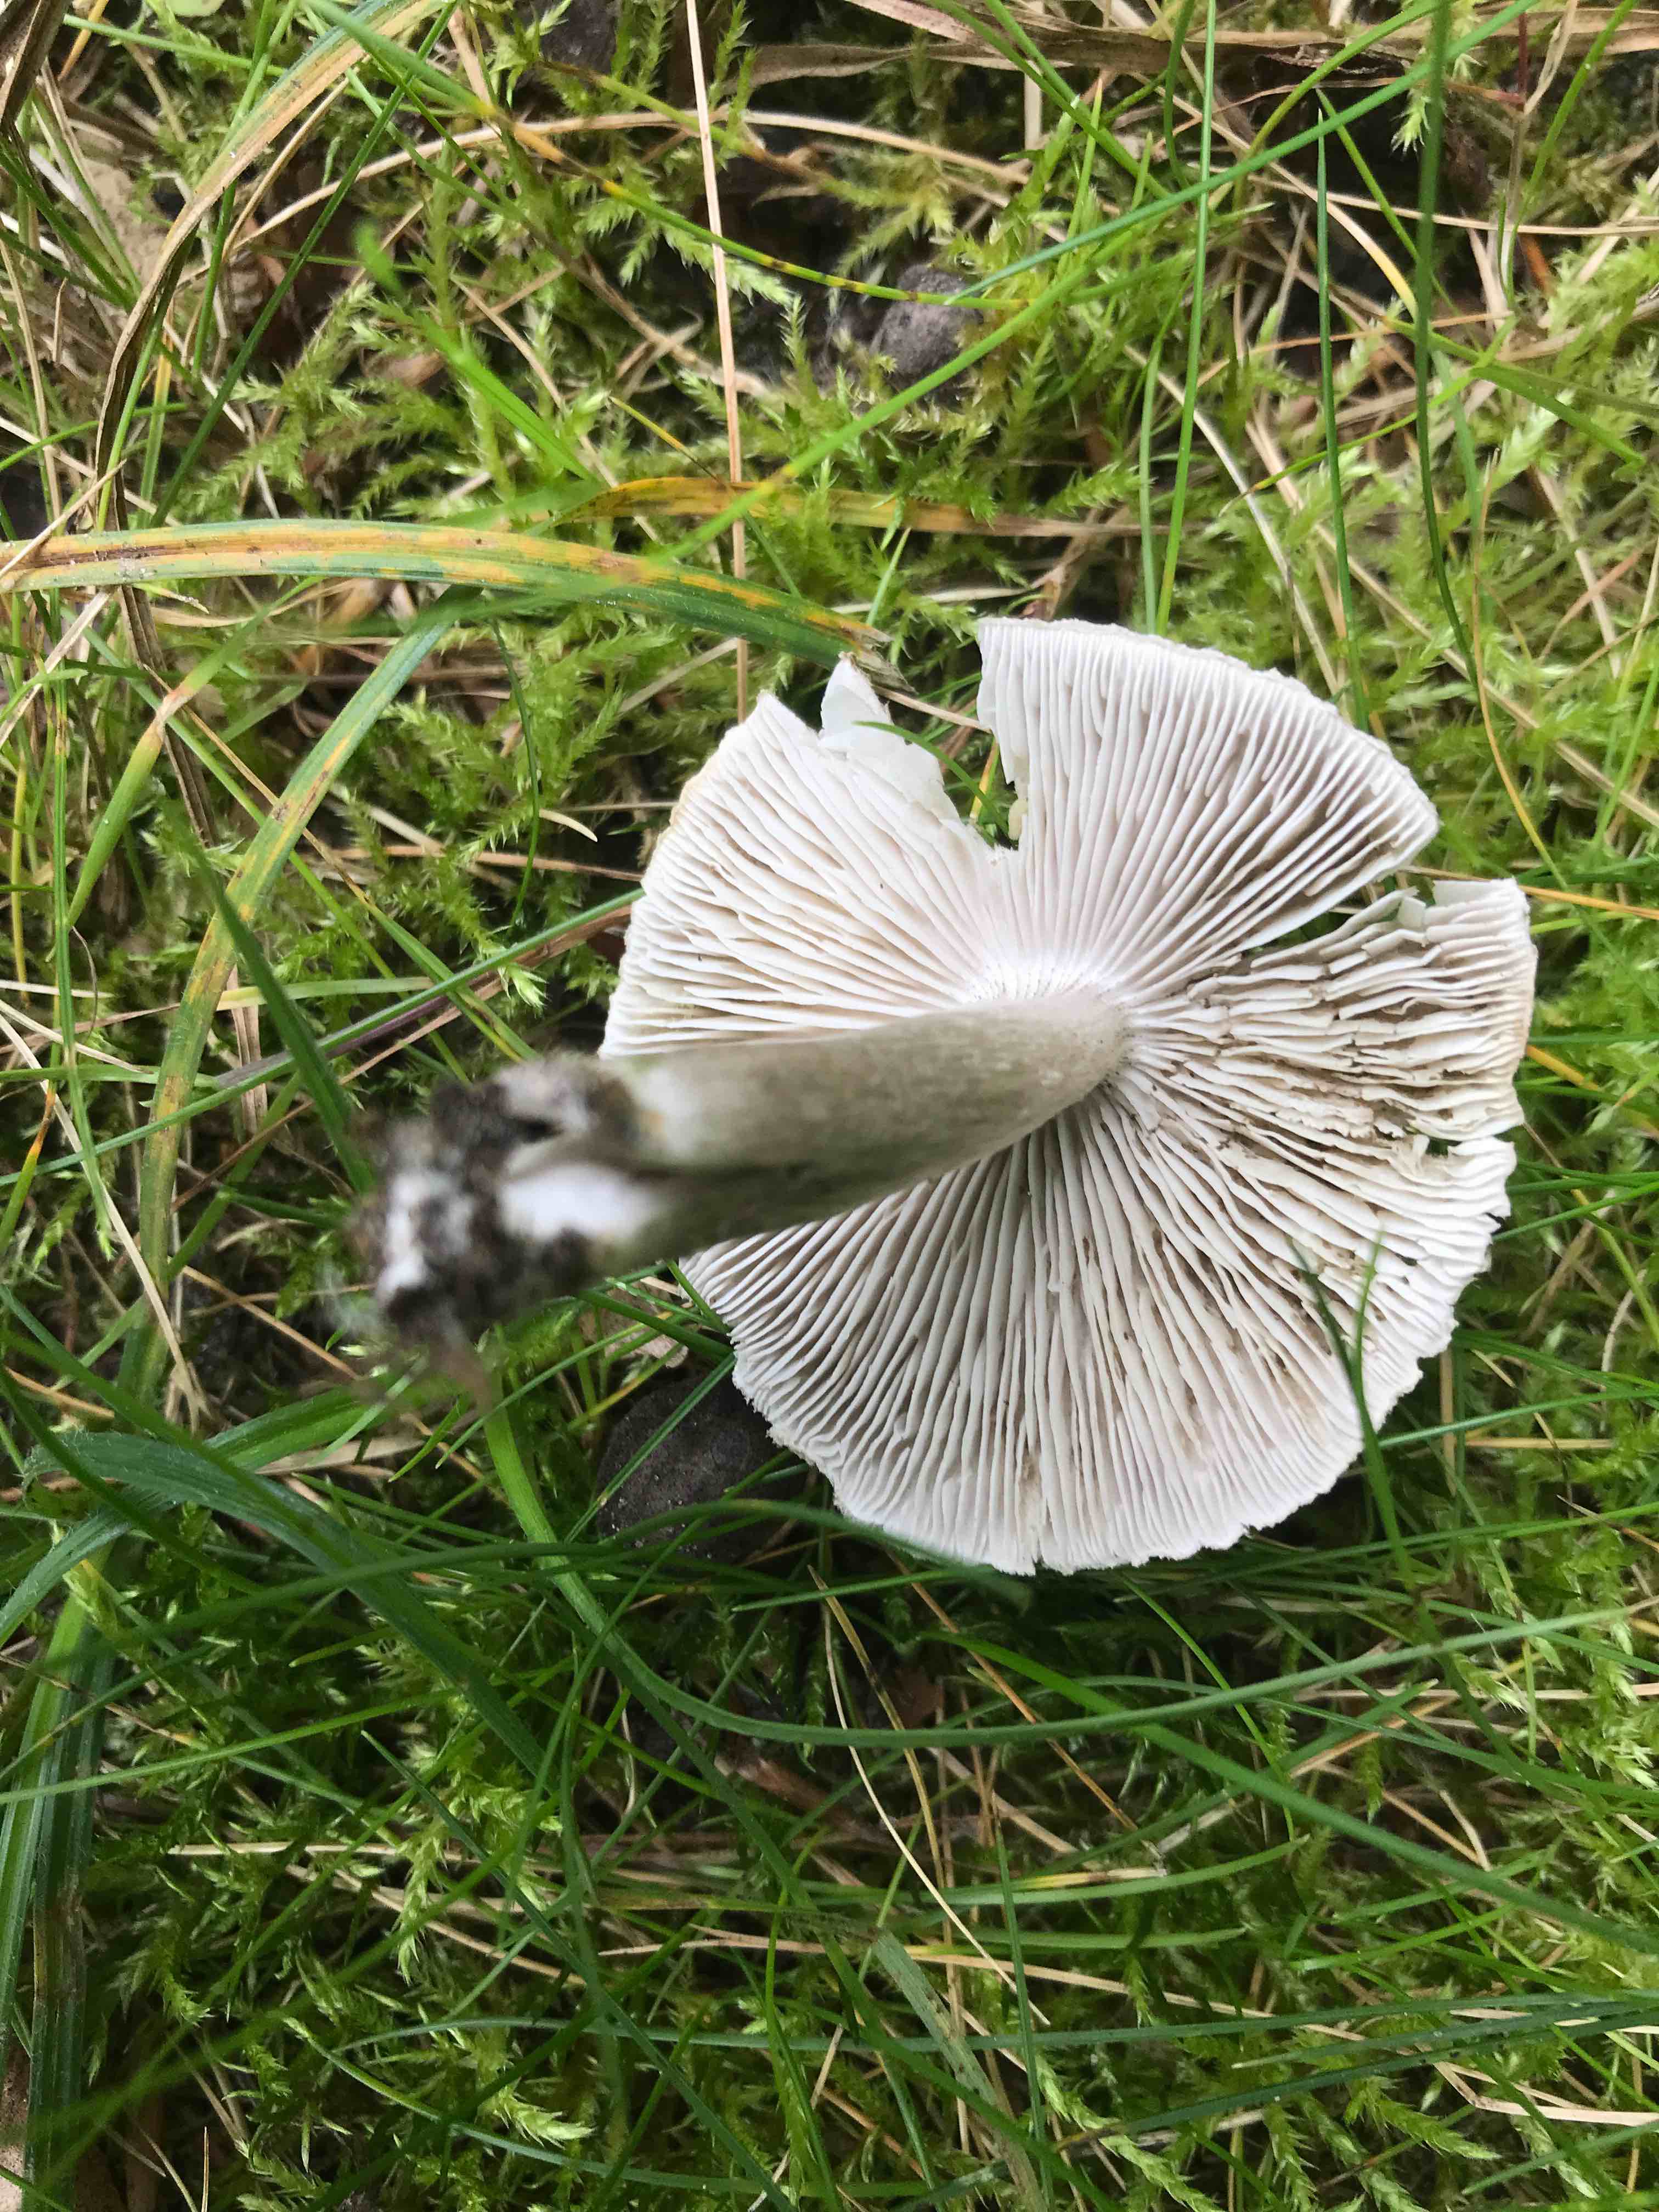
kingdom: Fungi
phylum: Basidiomycota
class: Agaricomycetes
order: Agaricales
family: Tricholomataceae
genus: Tricholoma
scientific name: Tricholoma scalpturatum
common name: gulplettet ridderhat
